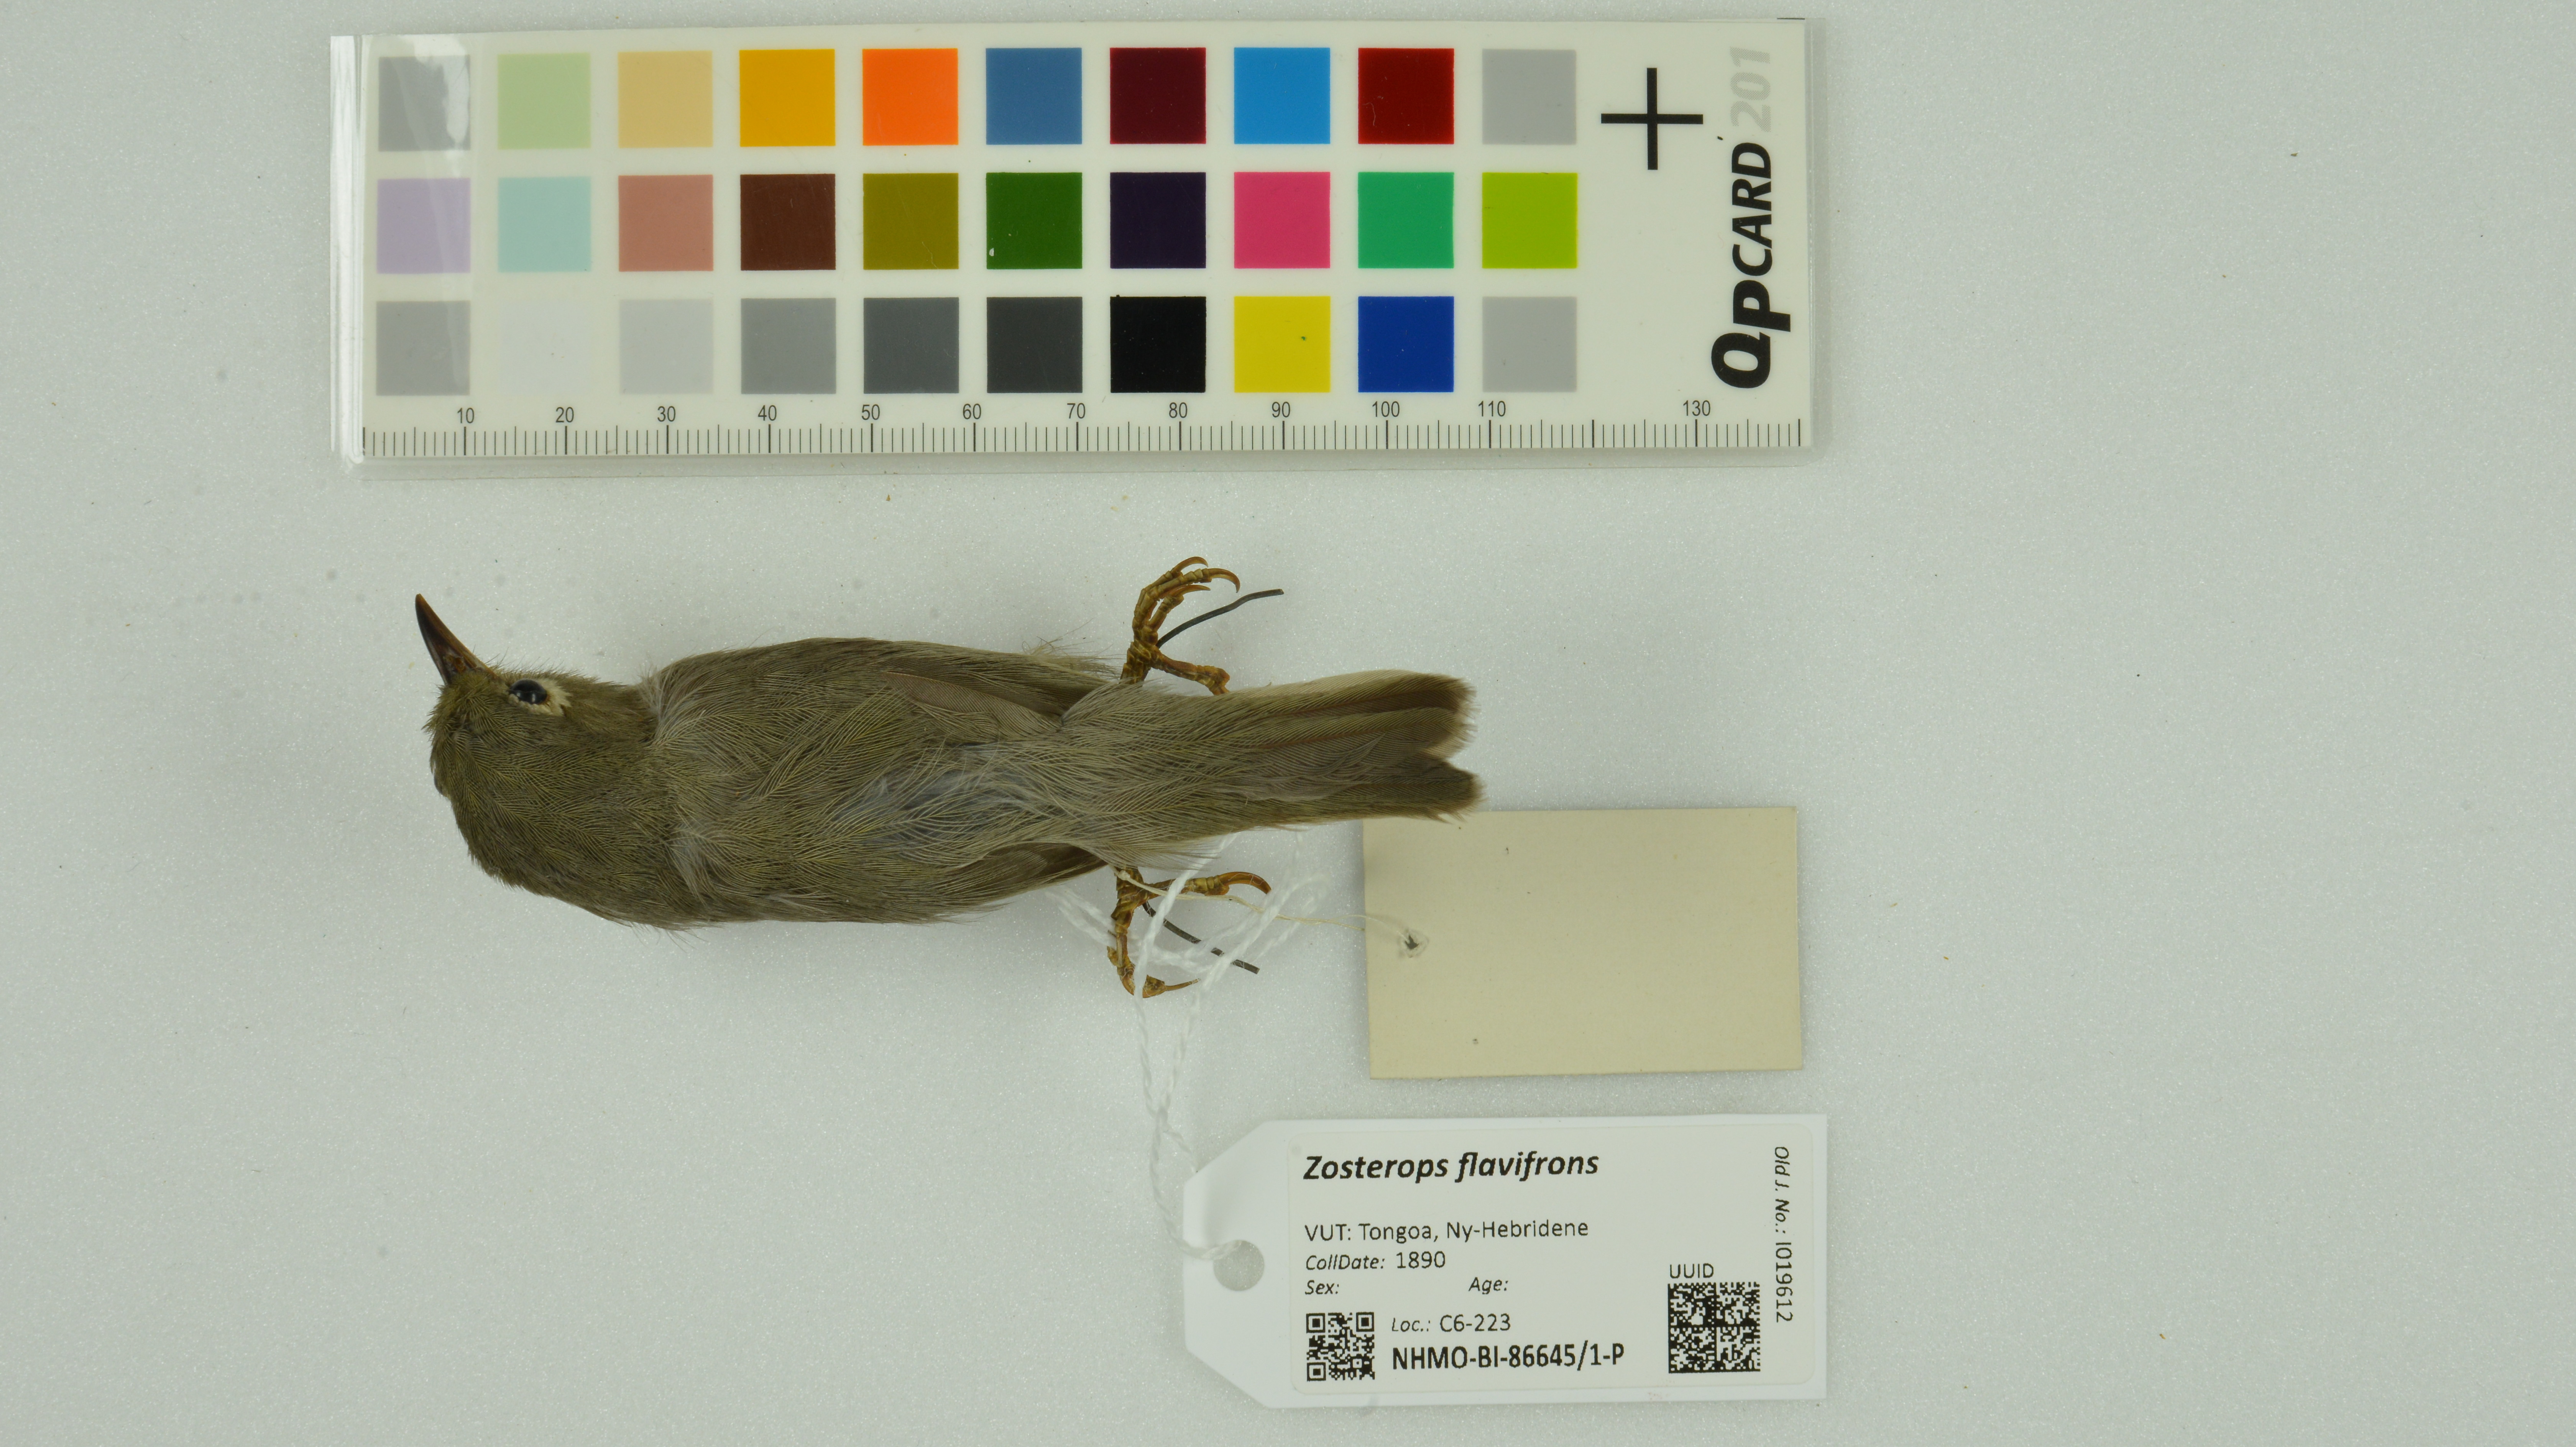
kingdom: Animalia
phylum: Chordata
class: Aves
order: Passeriformes
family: Zosteropidae
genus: Zosterops
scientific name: Zosterops flavifrons
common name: Vanuatu white-eye
